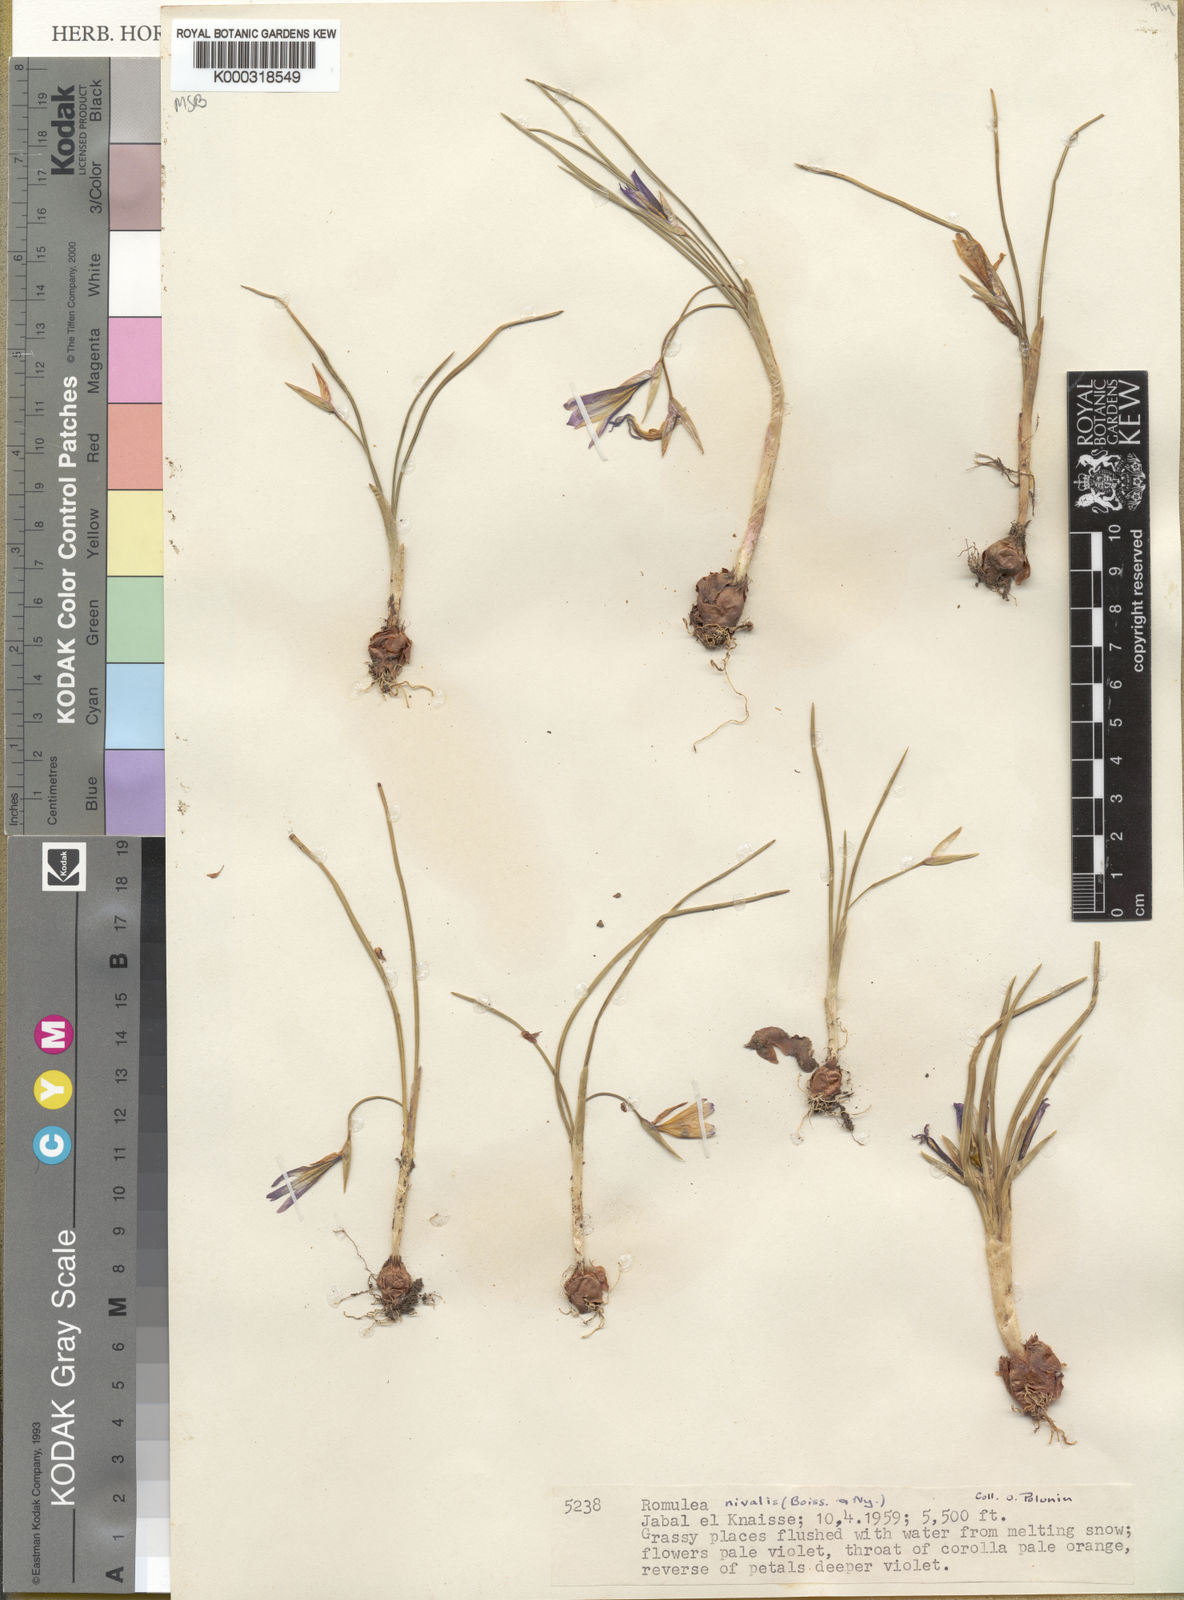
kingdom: Plantae
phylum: Tracheophyta
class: Liliopsida
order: Asparagales
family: Iridaceae
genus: Romulea
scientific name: Romulea nivalis
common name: Snow romulea
